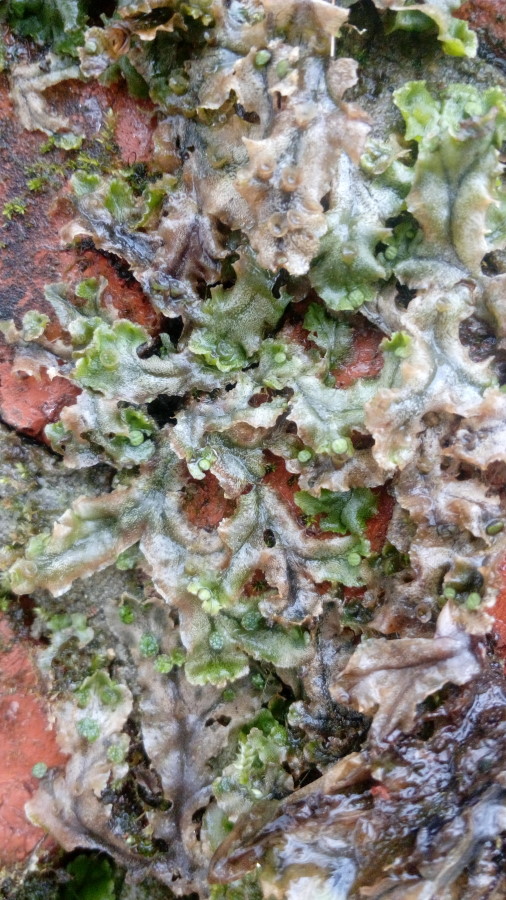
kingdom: Plantae
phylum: Marchantiophyta
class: Marchantiopsida
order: Marchantiales
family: Marchantiaceae
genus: Marchantia
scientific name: Marchantia polymorpha
